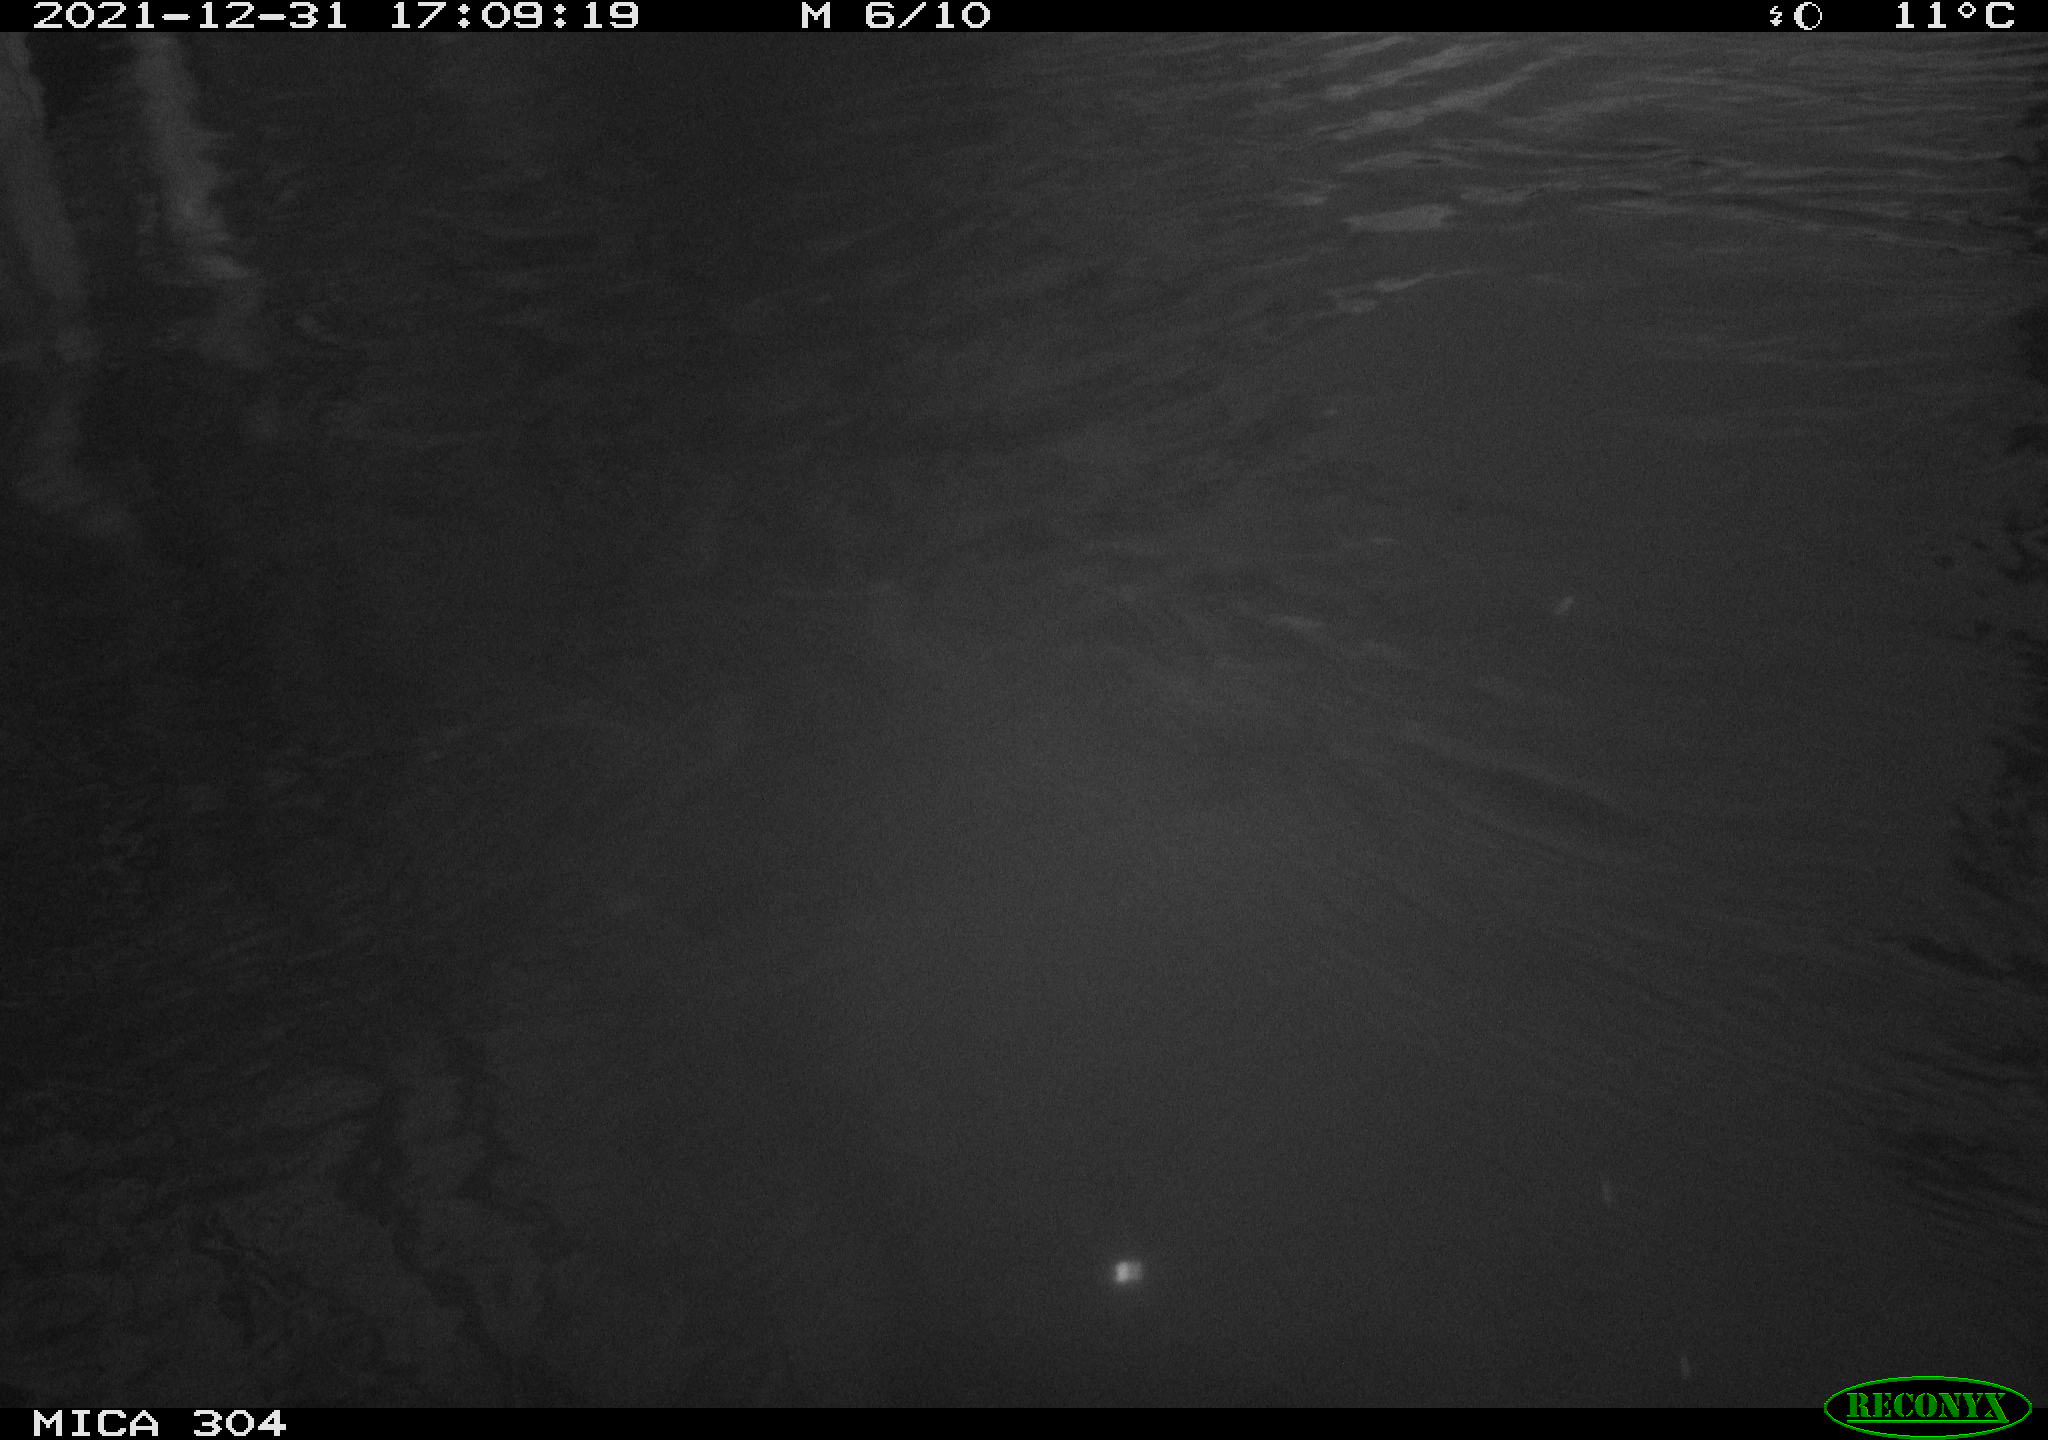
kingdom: Animalia
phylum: Chordata
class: Aves
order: Gruiformes
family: Rallidae
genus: Fulica
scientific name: Fulica atra
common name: Eurasian coot
